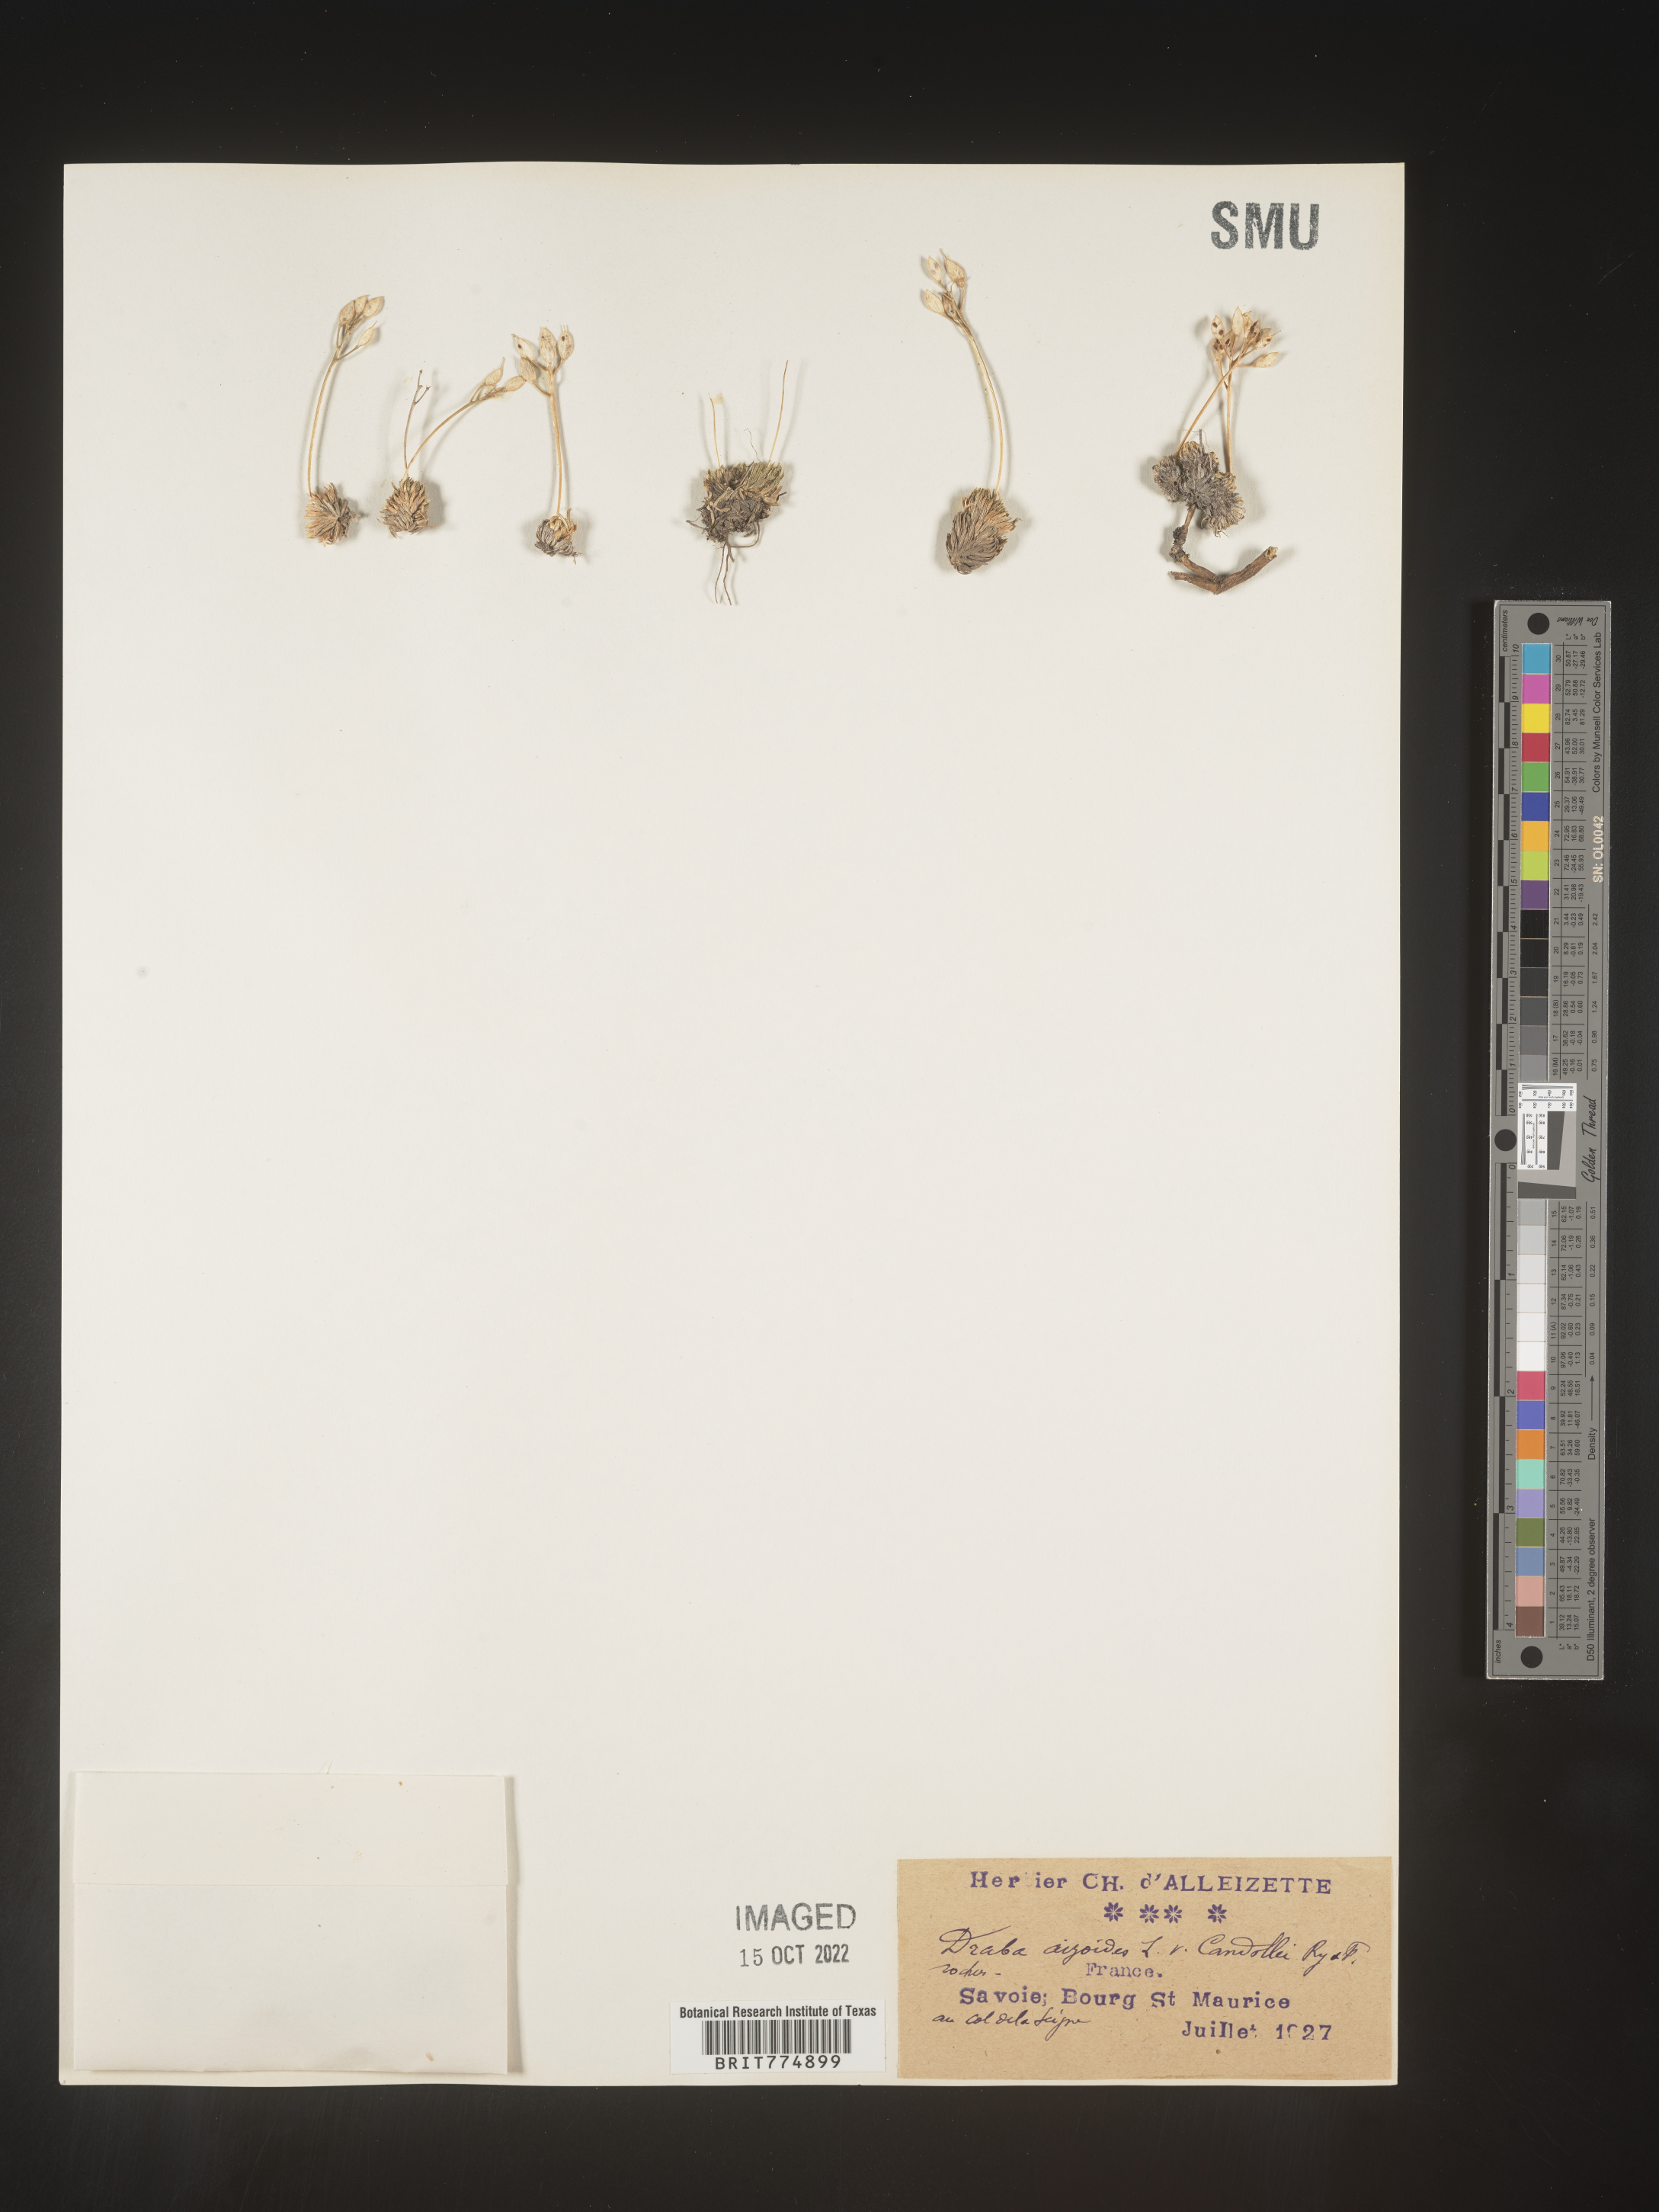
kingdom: Plantae
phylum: Tracheophyta
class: Magnoliopsida
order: Brassicales
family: Brassicaceae
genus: Draba
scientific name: Draba
